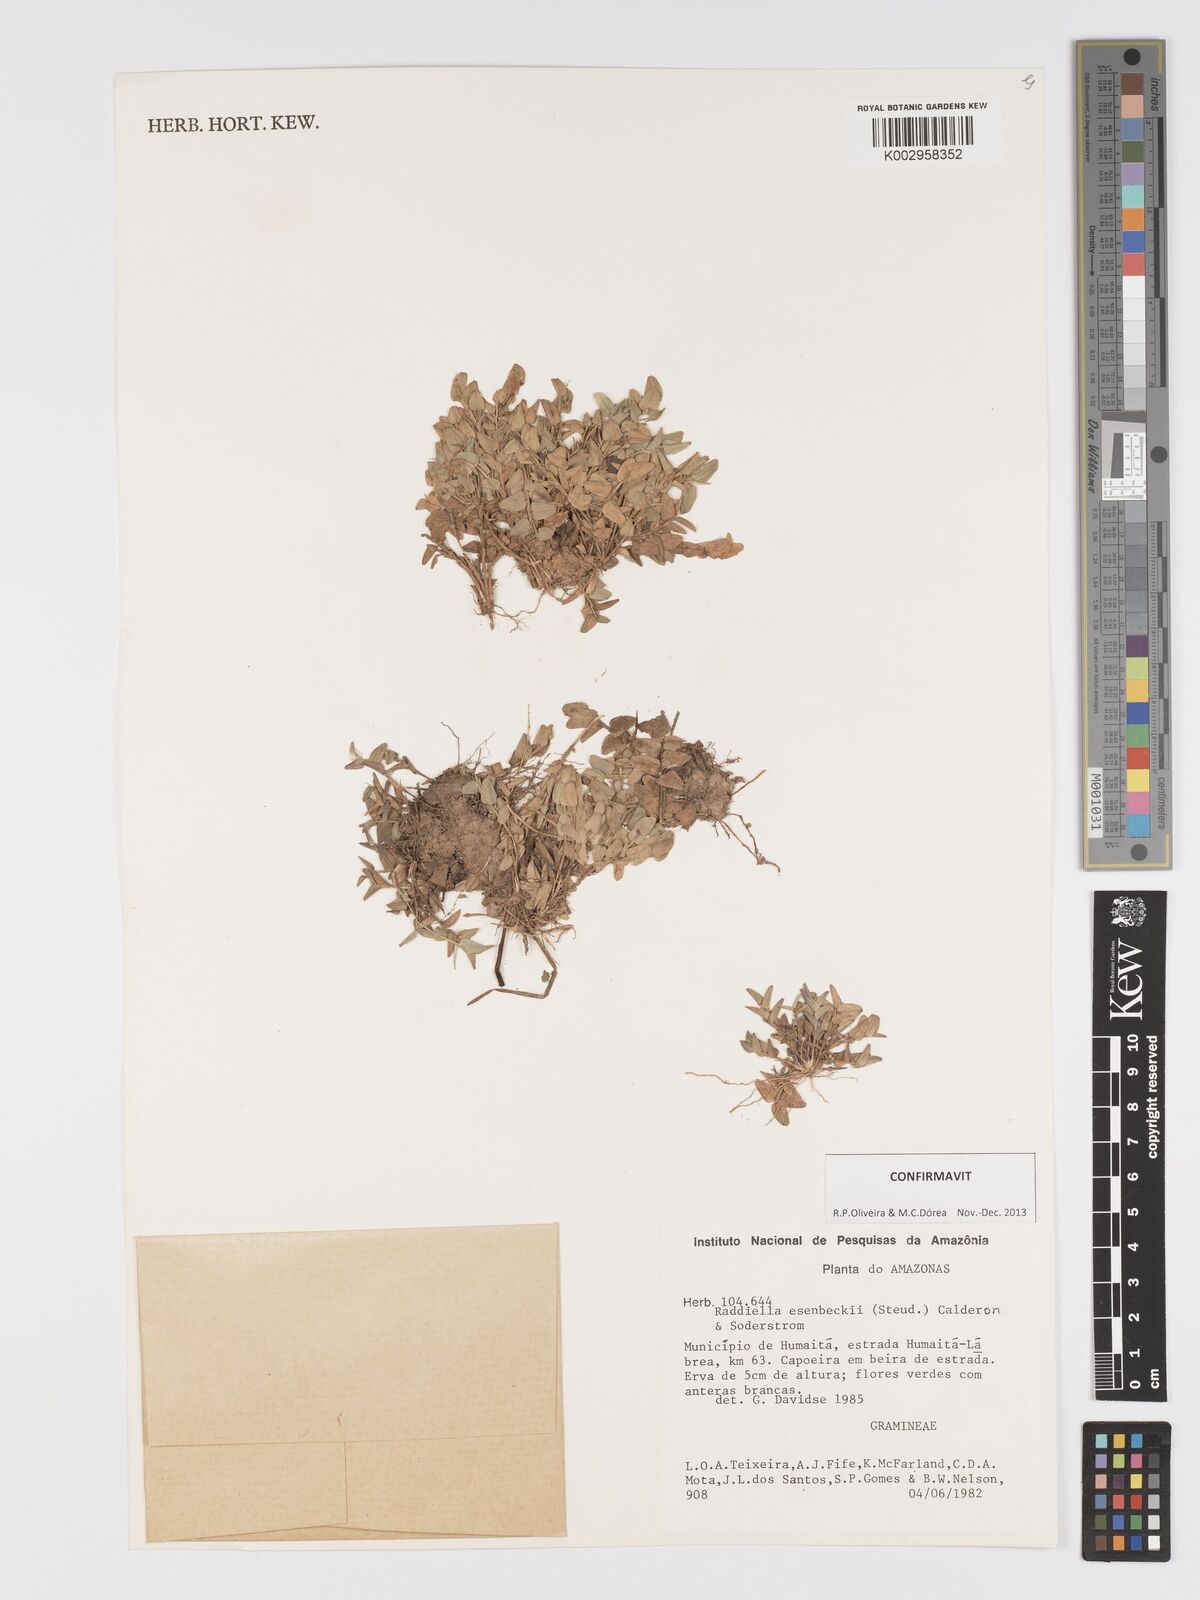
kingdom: Plantae
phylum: Tracheophyta
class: Liliopsida
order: Poales
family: Poaceae
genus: Raddiella
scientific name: Raddiella esenbeckii
